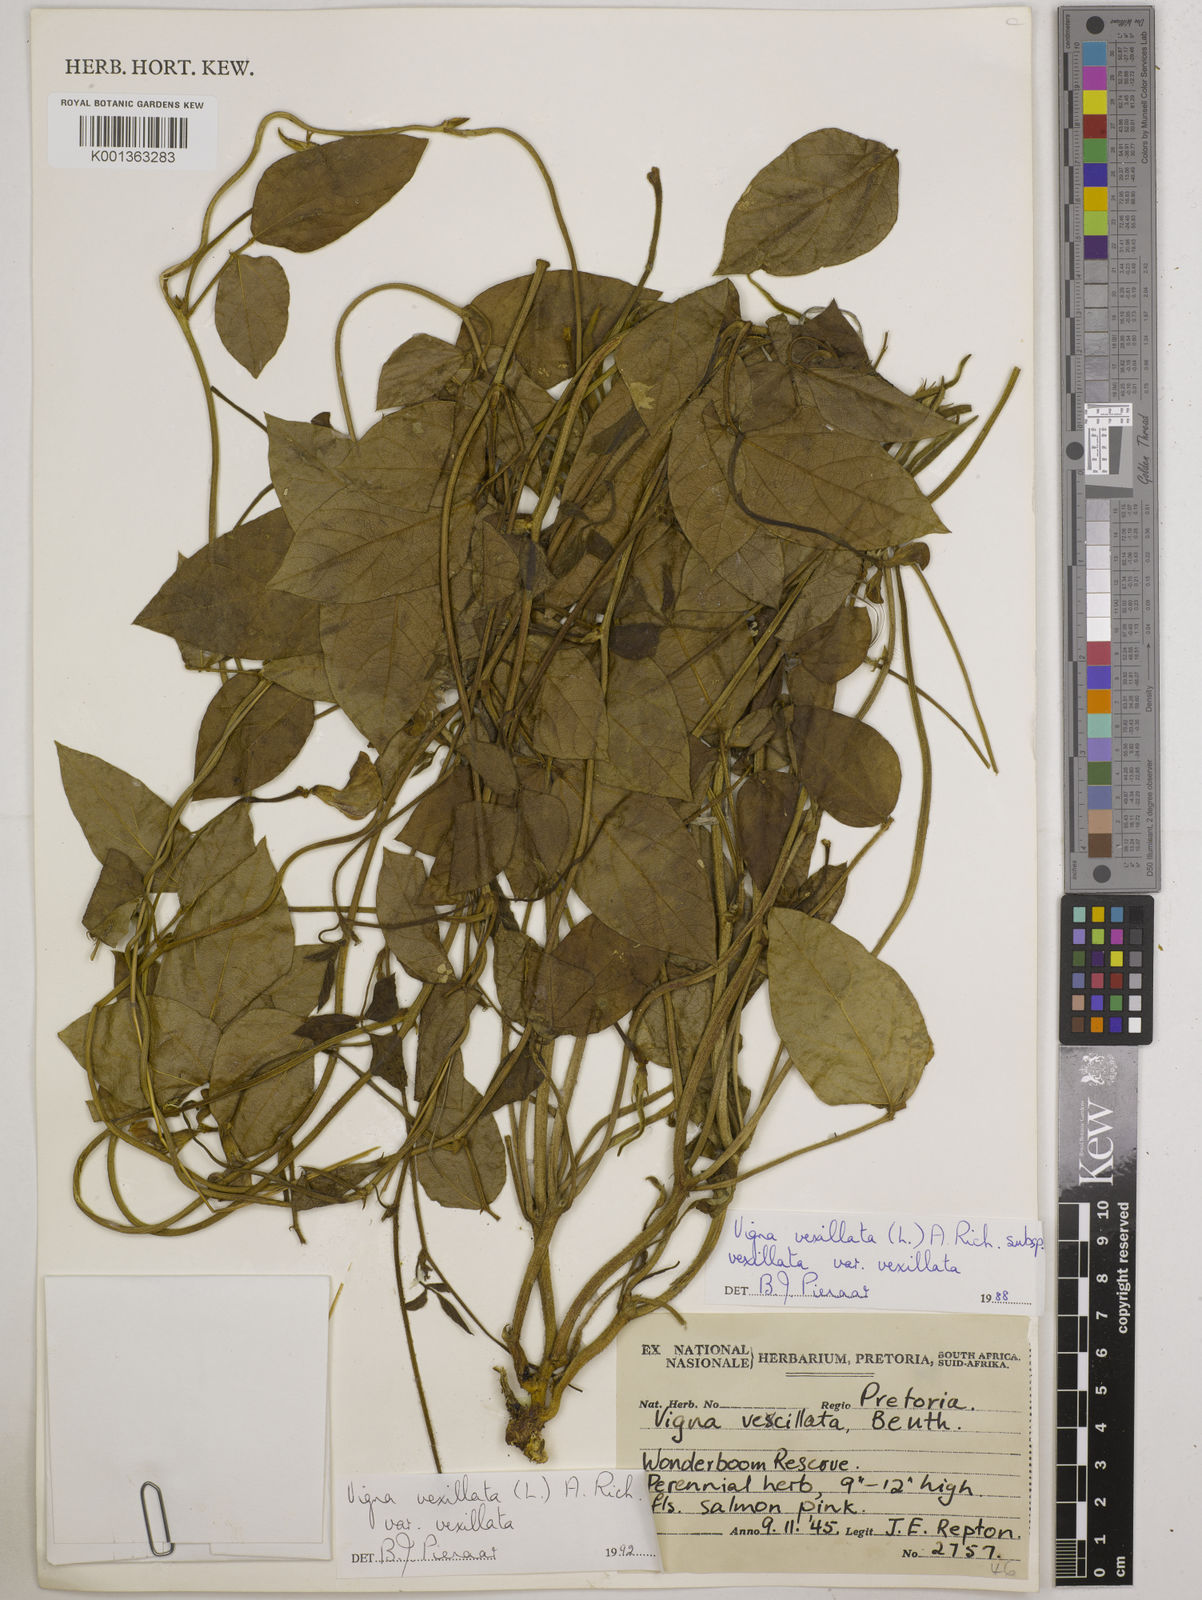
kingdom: Plantae
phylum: Tracheophyta
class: Magnoliopsida
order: Fabales
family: Fabaceae
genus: Vigna
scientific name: Vigna
